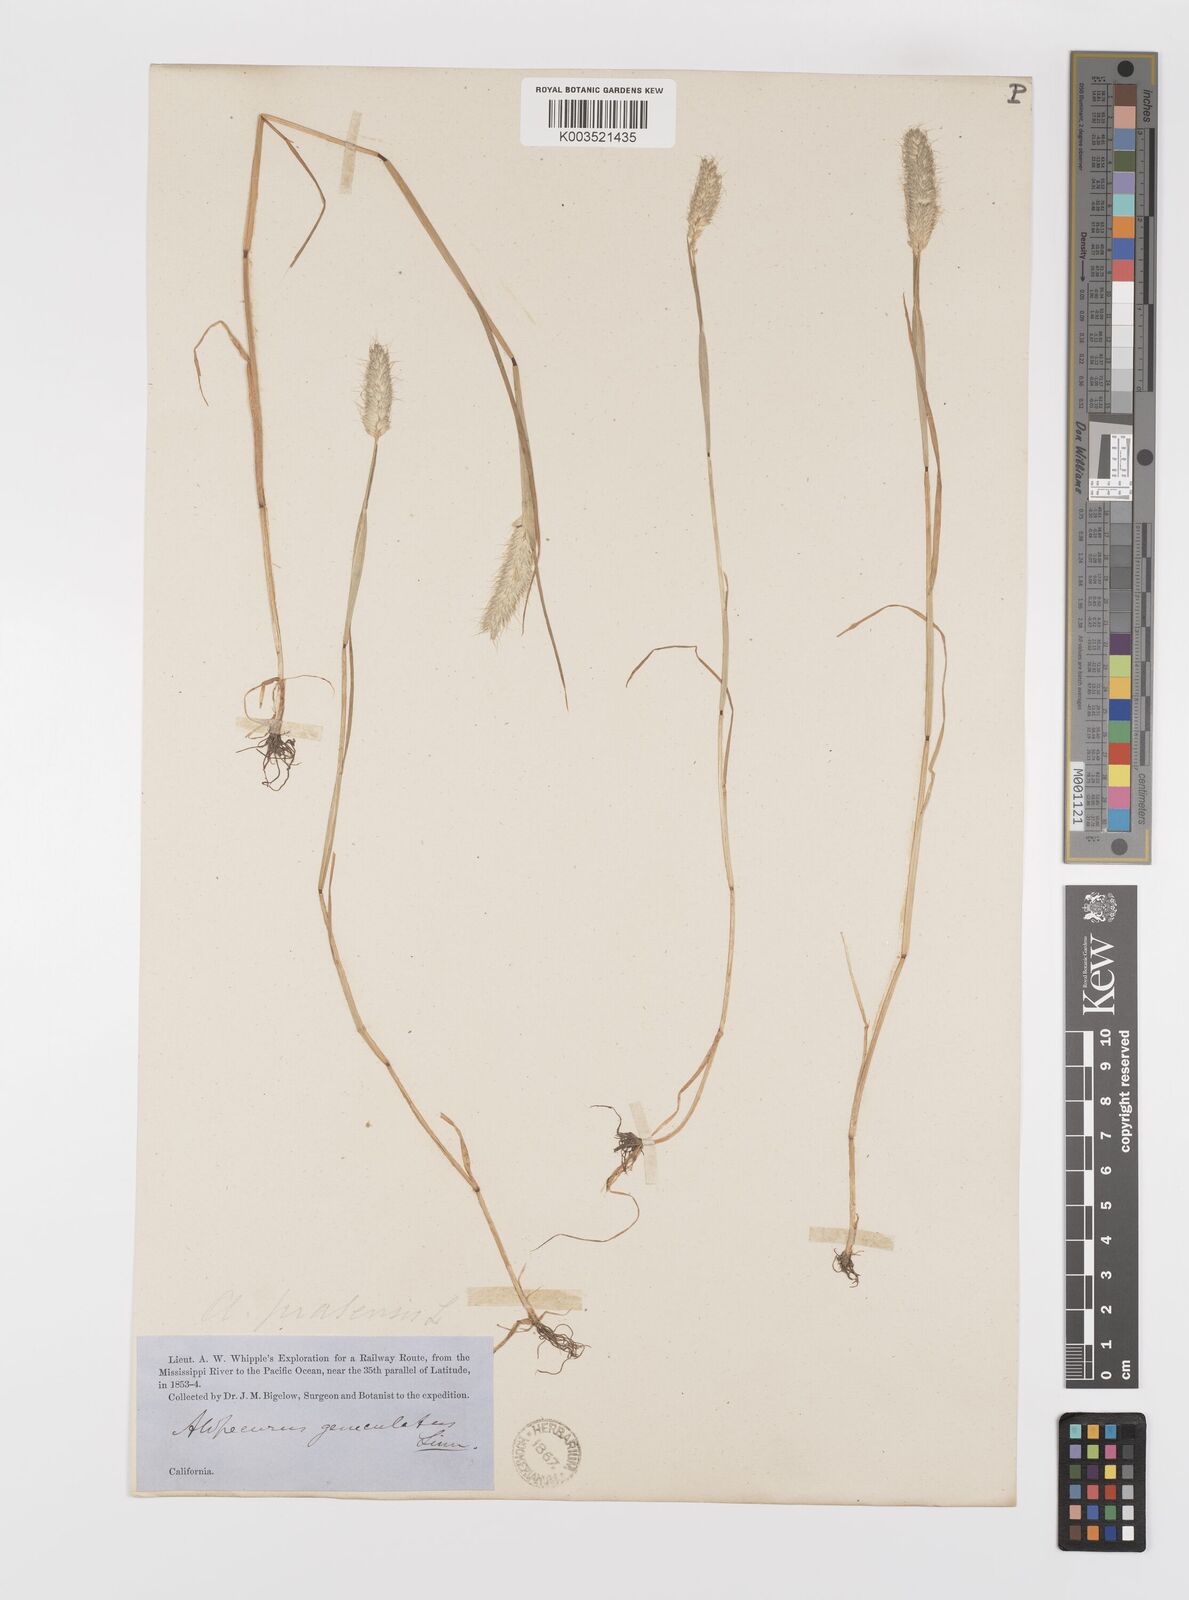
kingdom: Plantae
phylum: Tracheophyta
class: Liliopsida
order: Poales
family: Poaceae
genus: Alopecurus
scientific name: Alopecurus saccatus
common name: Pacific foxtail
